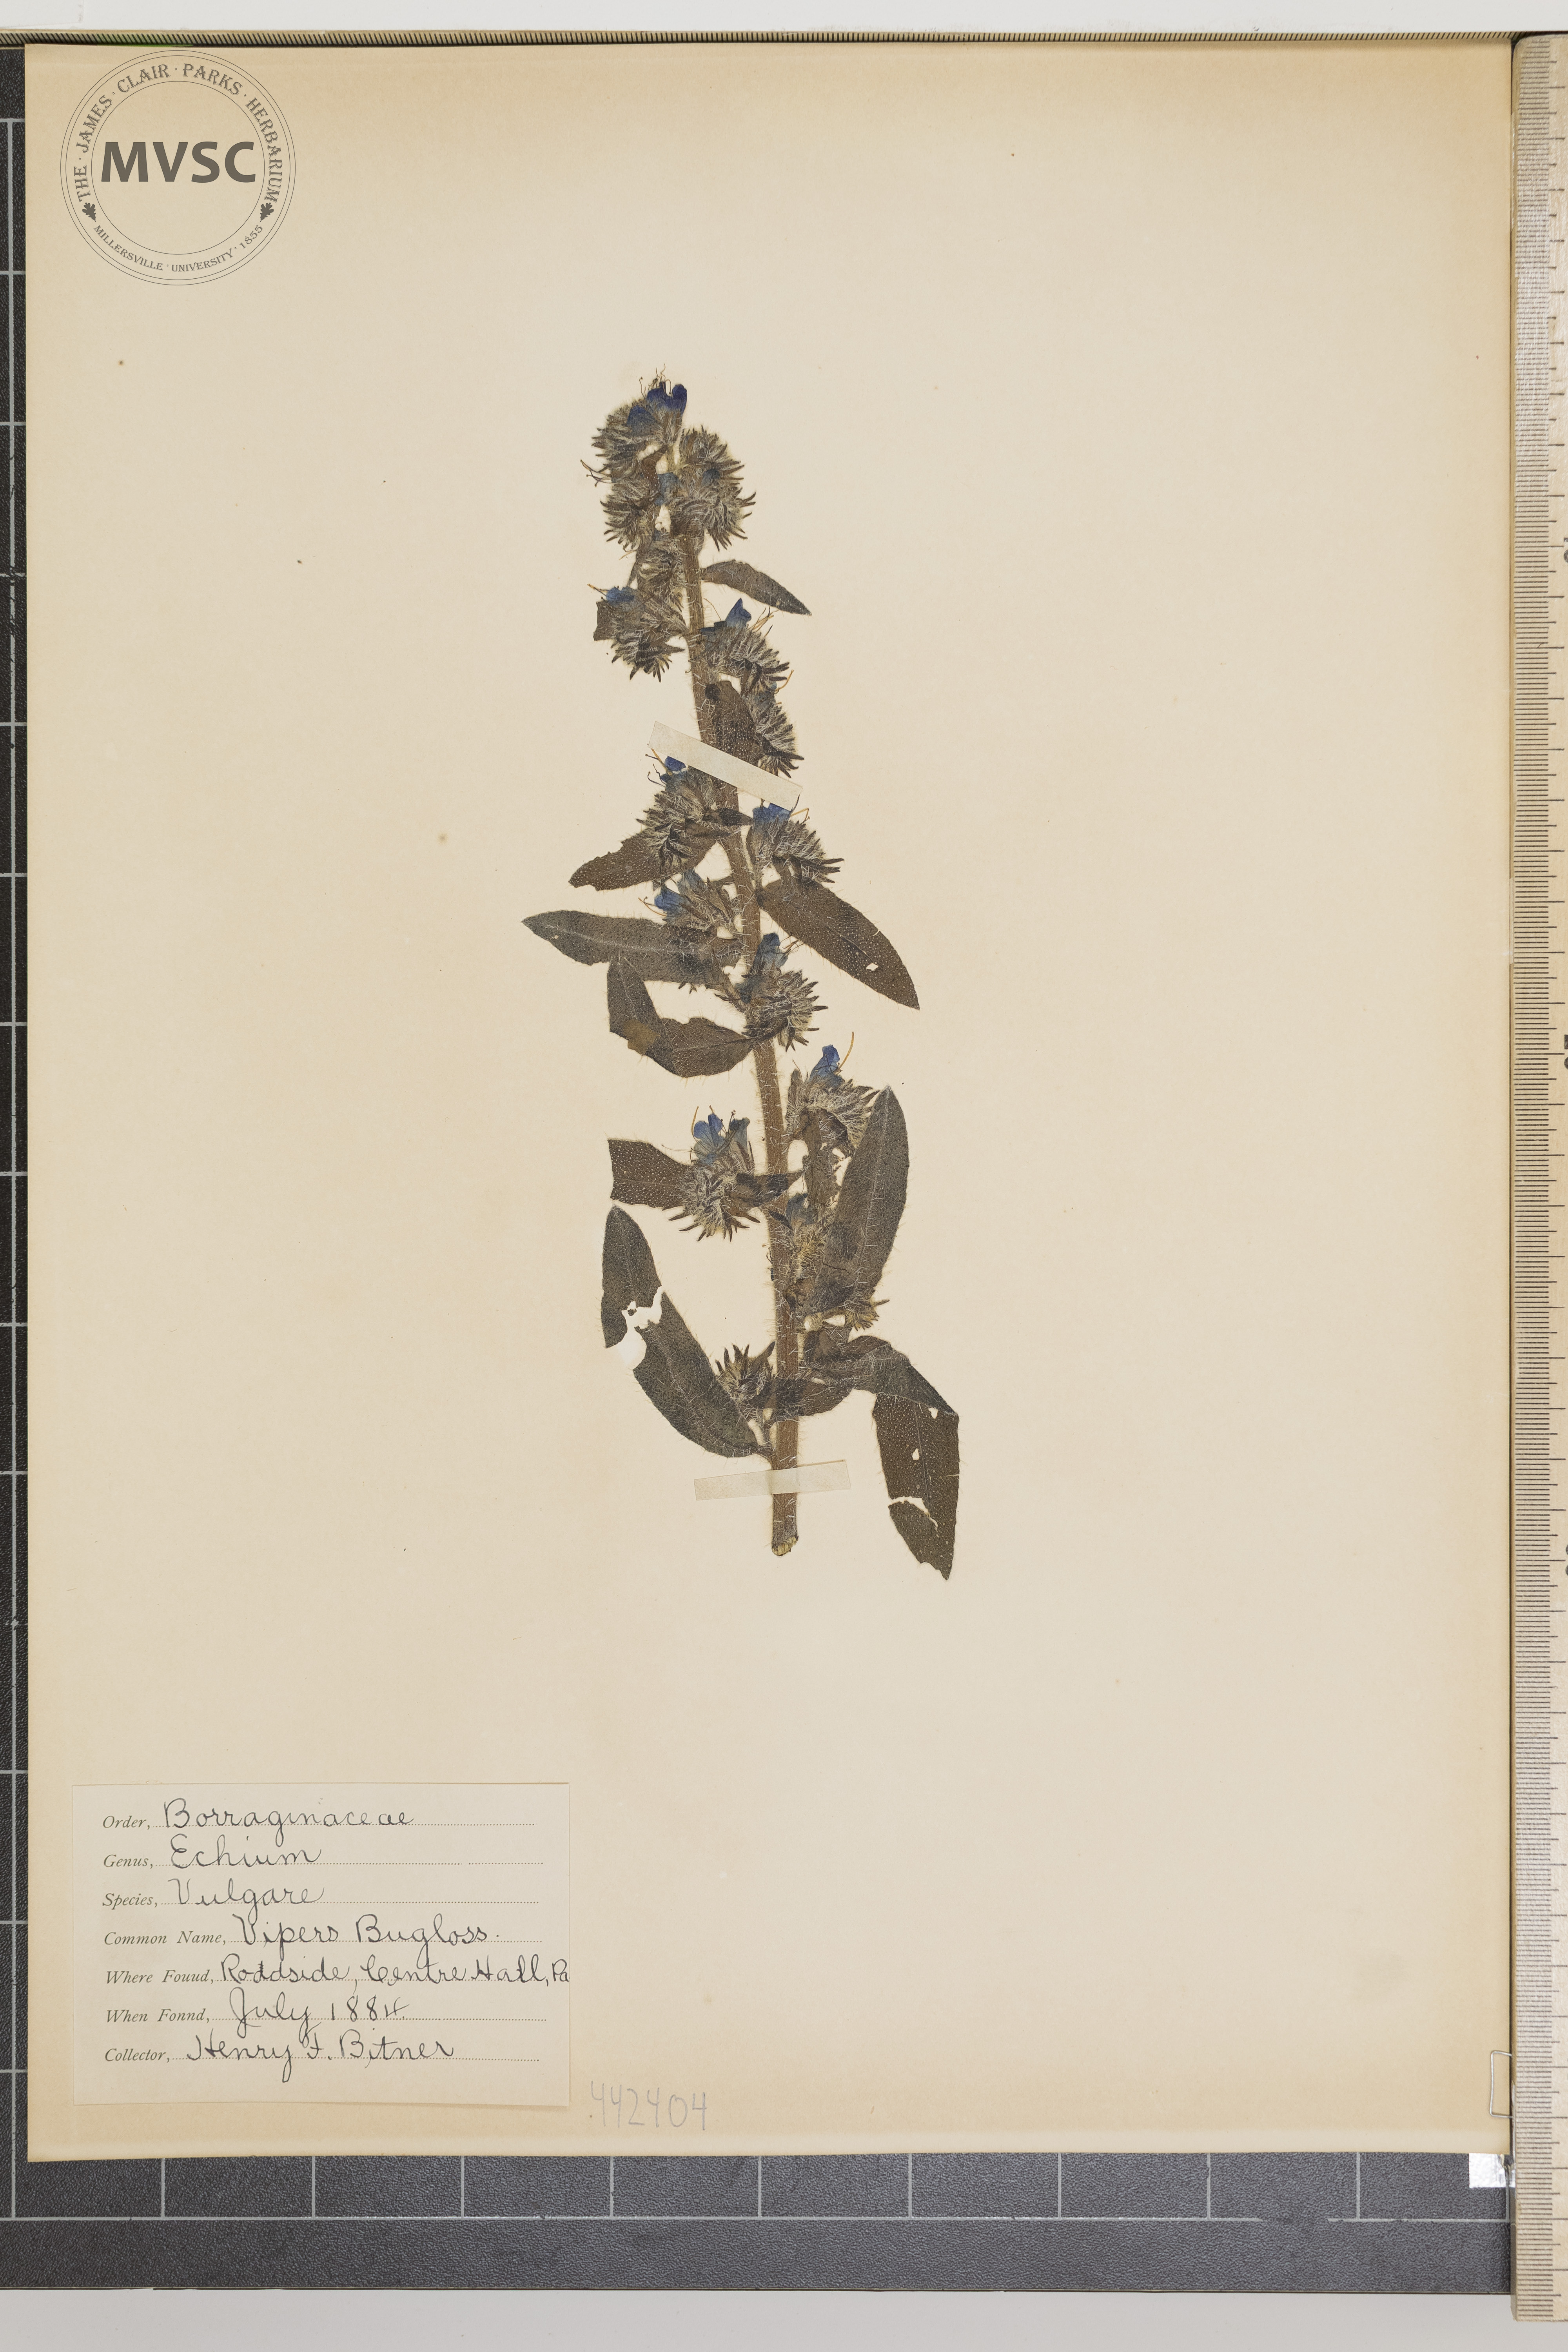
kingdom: Plantae
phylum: Tracheophyta
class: Magnoliopsida
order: Boraginales
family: Boraginaceae
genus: Echium
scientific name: Echium vulgare
